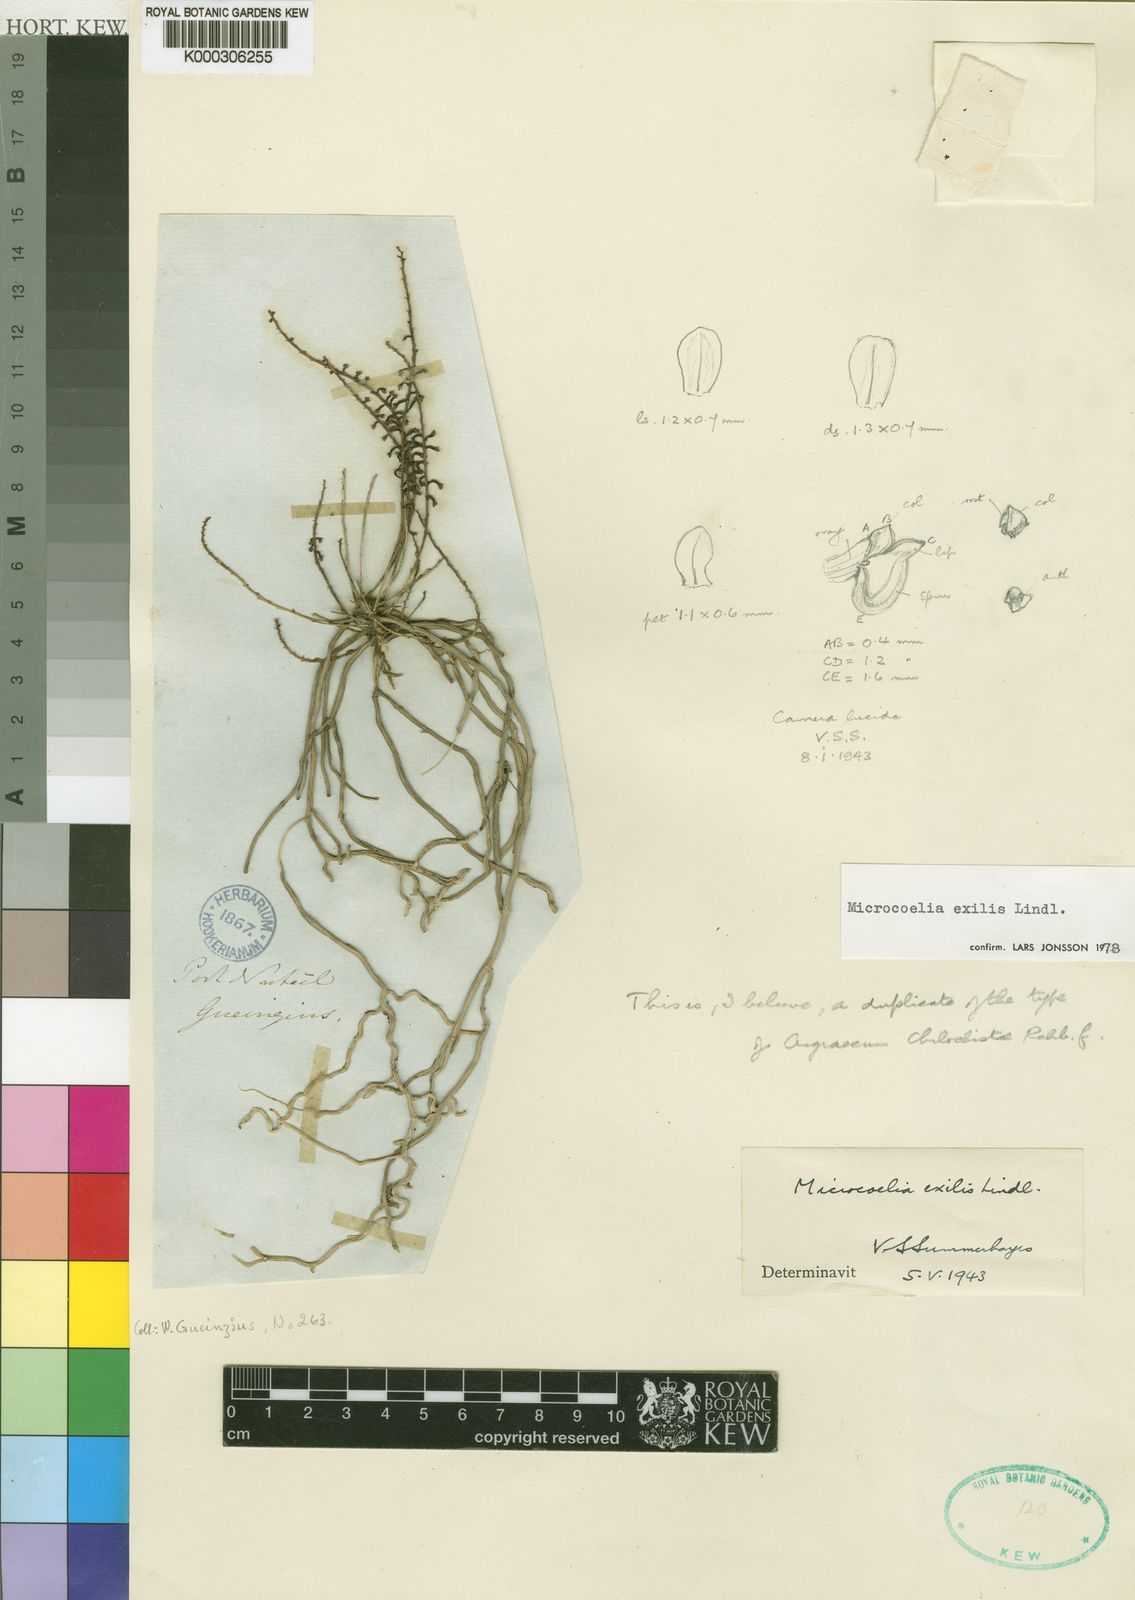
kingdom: Plantae
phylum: Tracheophyta
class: Liliopsida
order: Asparagales
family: Orchidaceae
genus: Microcoelia
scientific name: Microcoelia exilis
